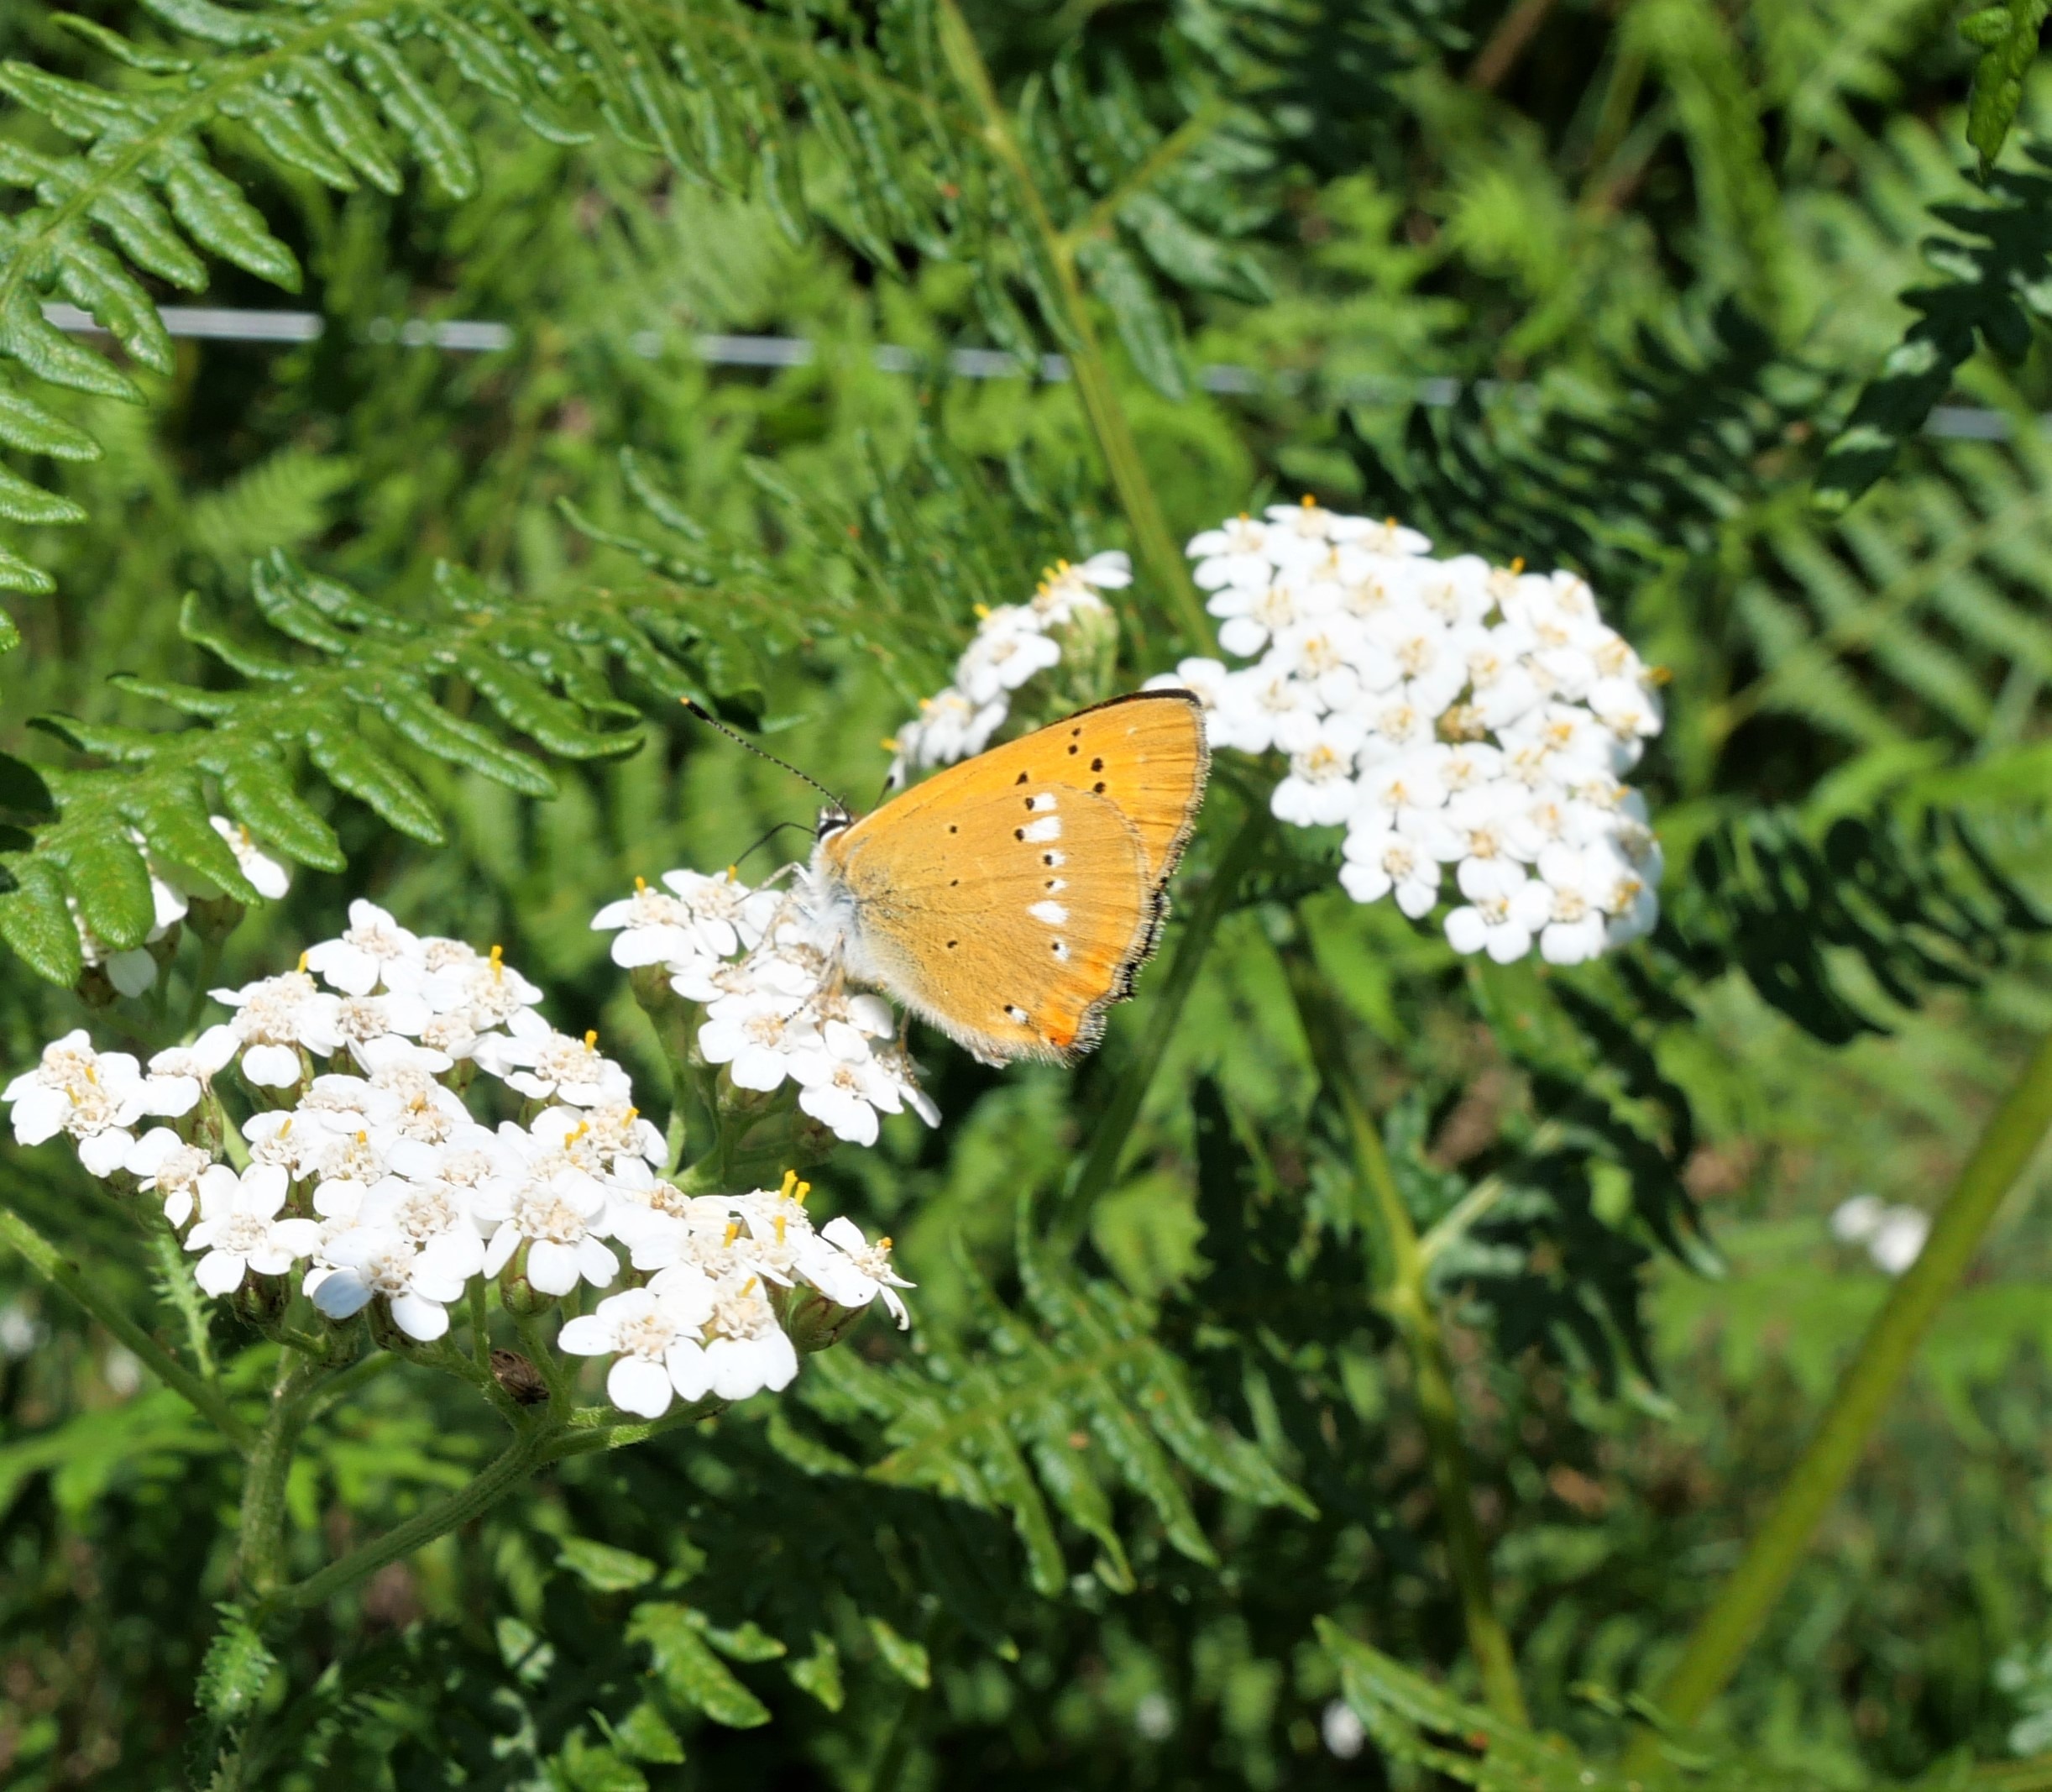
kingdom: Animalia
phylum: Arthropoda
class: Insecta
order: Lepidoptera
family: Lycaenidae
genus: Lycaena
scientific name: Lycaena virgaureae
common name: Dukatsommerfugl
